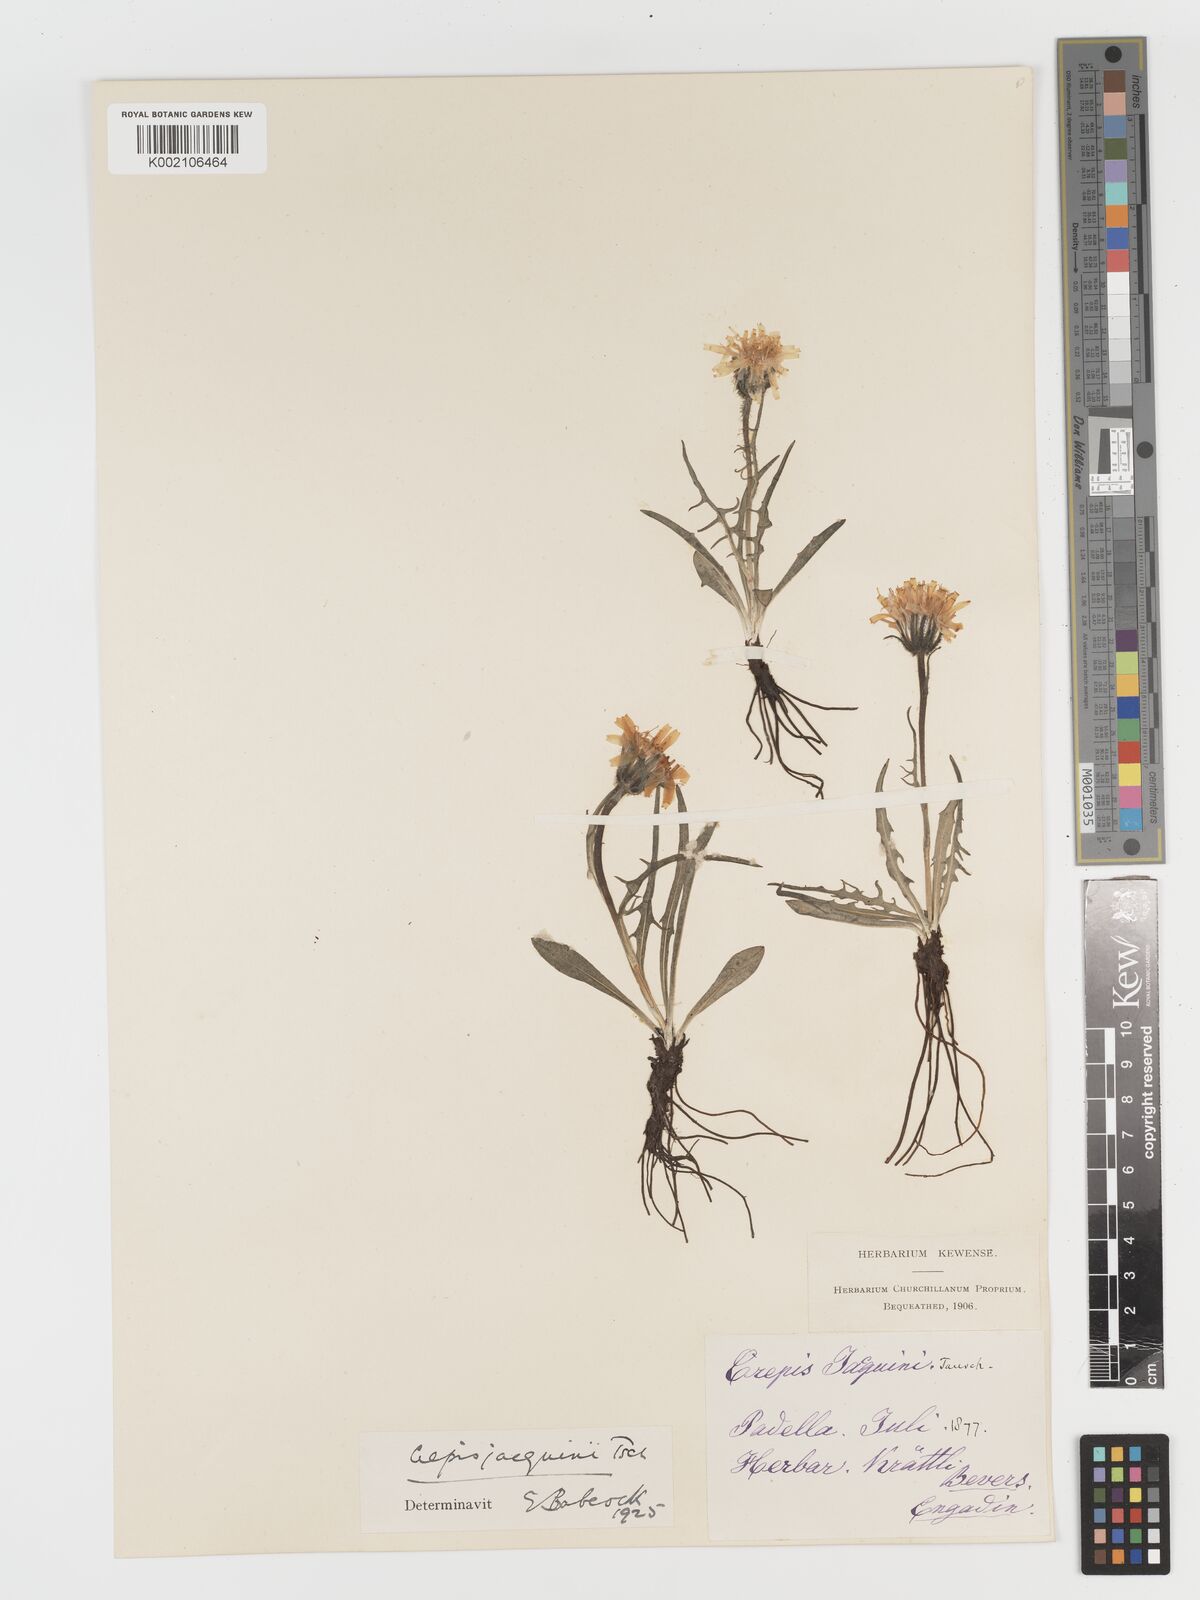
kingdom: Plantae
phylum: Tracheophyta
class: Magnoliopsida
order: Asterales
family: Asteraceae
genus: Crepis
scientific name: Crepis jacquinii
